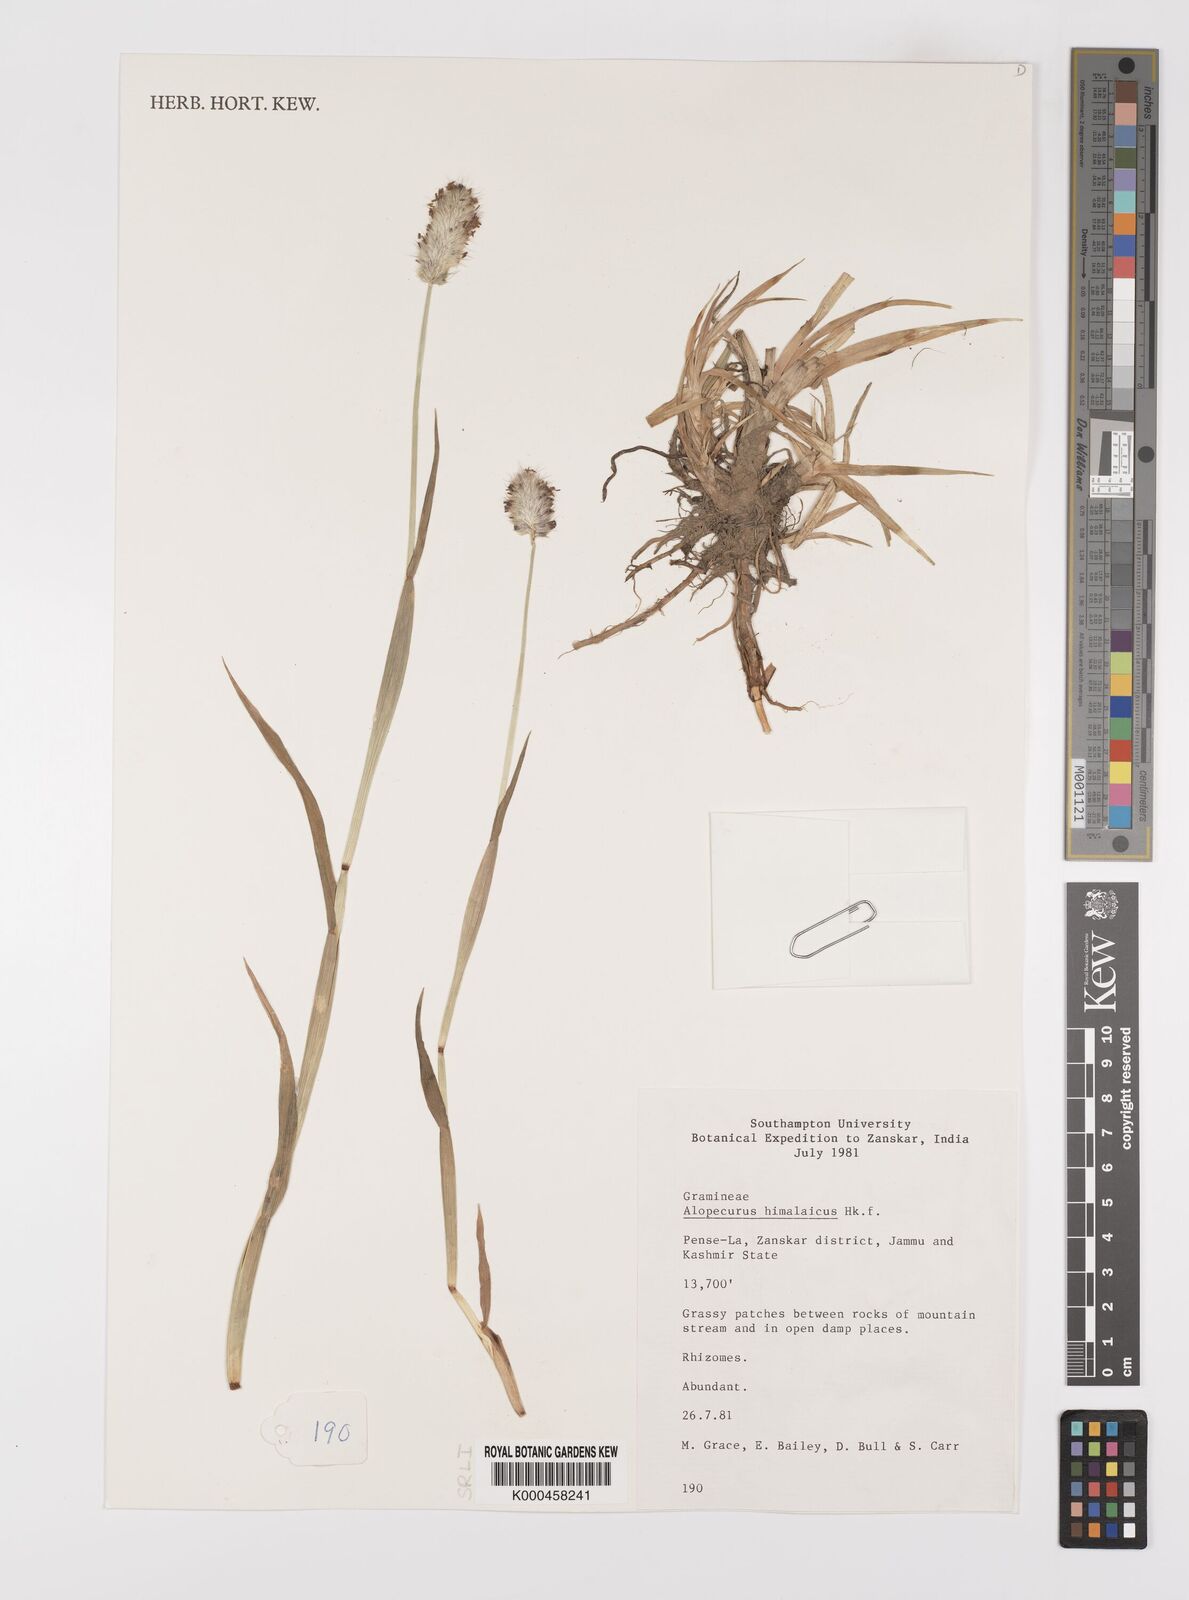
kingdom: Plantae
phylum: Tracheophyta
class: Liliopsida
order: Poales
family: Poaceae
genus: Alopecurus
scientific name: Alopecurus himalaicus
